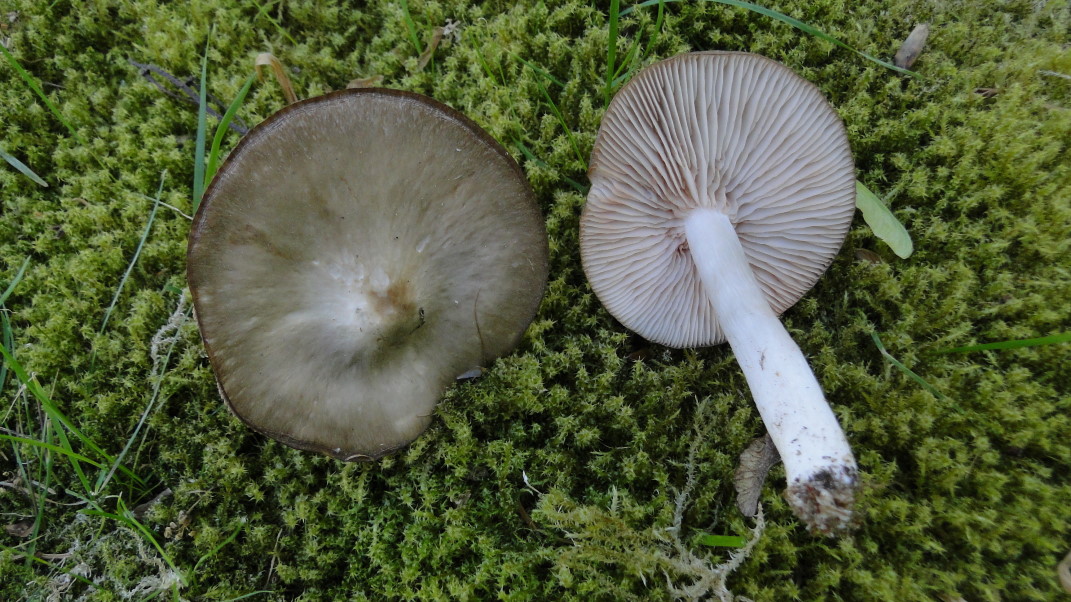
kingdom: Fungi
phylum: Basidiomycota
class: Agaricomycetes
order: Agaricales
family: Entolomataceae
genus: Entoloma
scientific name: Entoloma clypeatum
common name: flammet rødblad
